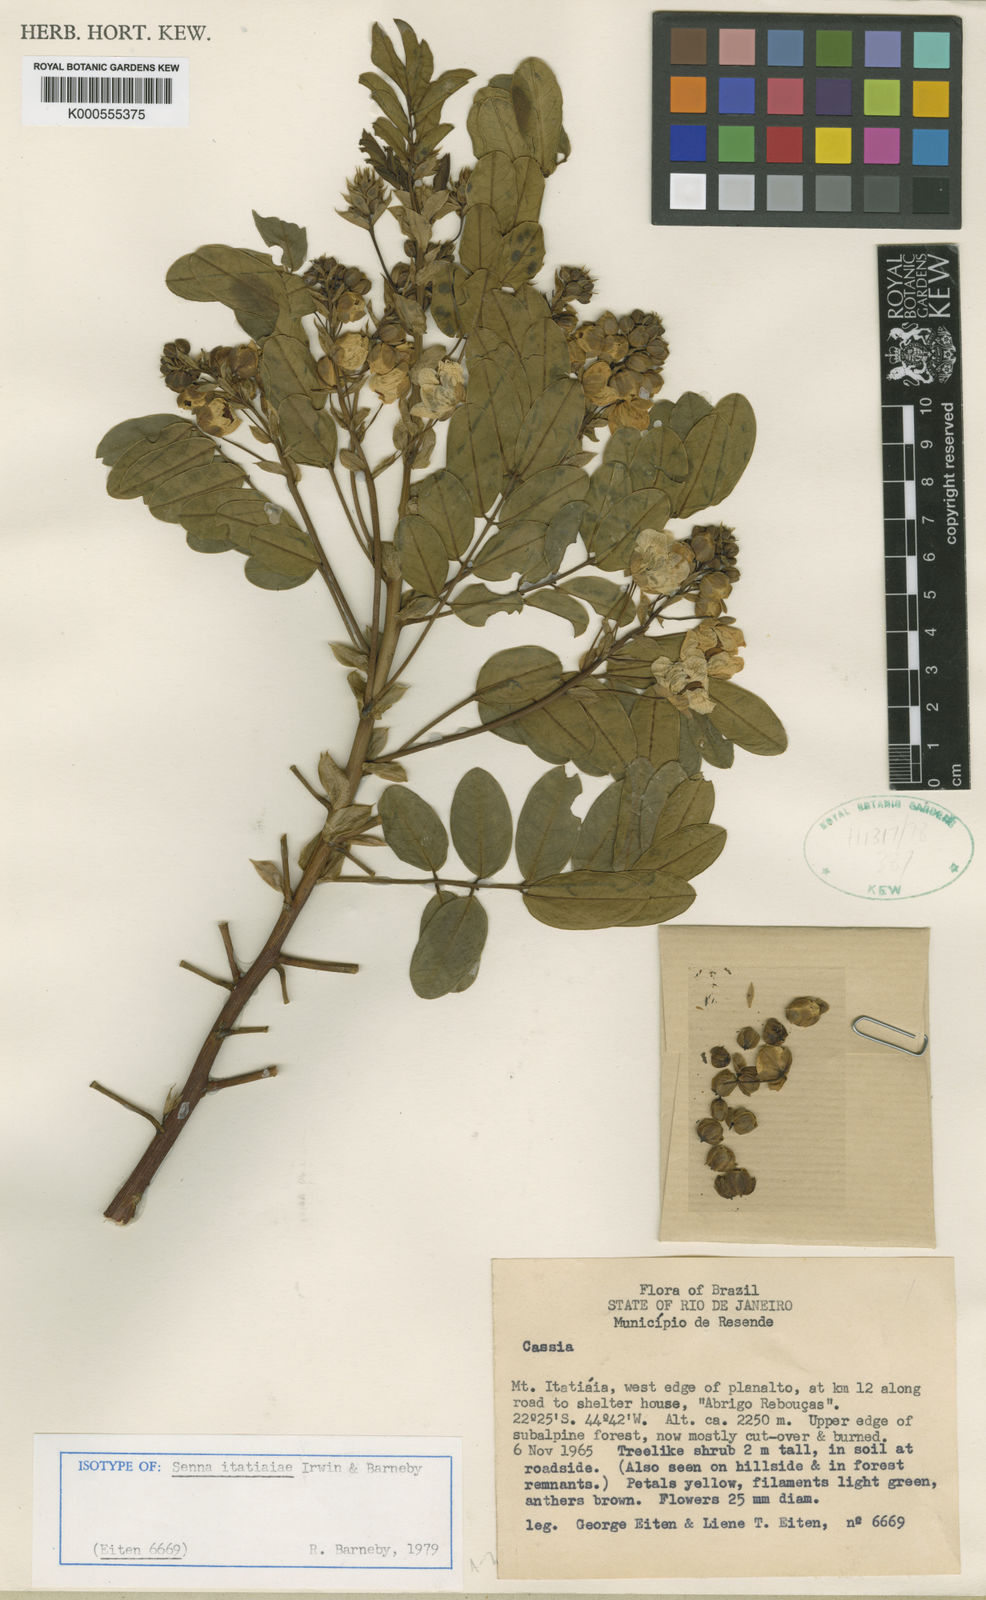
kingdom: Plantae
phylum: Tracheophyta
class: Magnoliopsida
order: Fabales
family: Fabaceae
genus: Senna
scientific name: Senna itatiaiae
